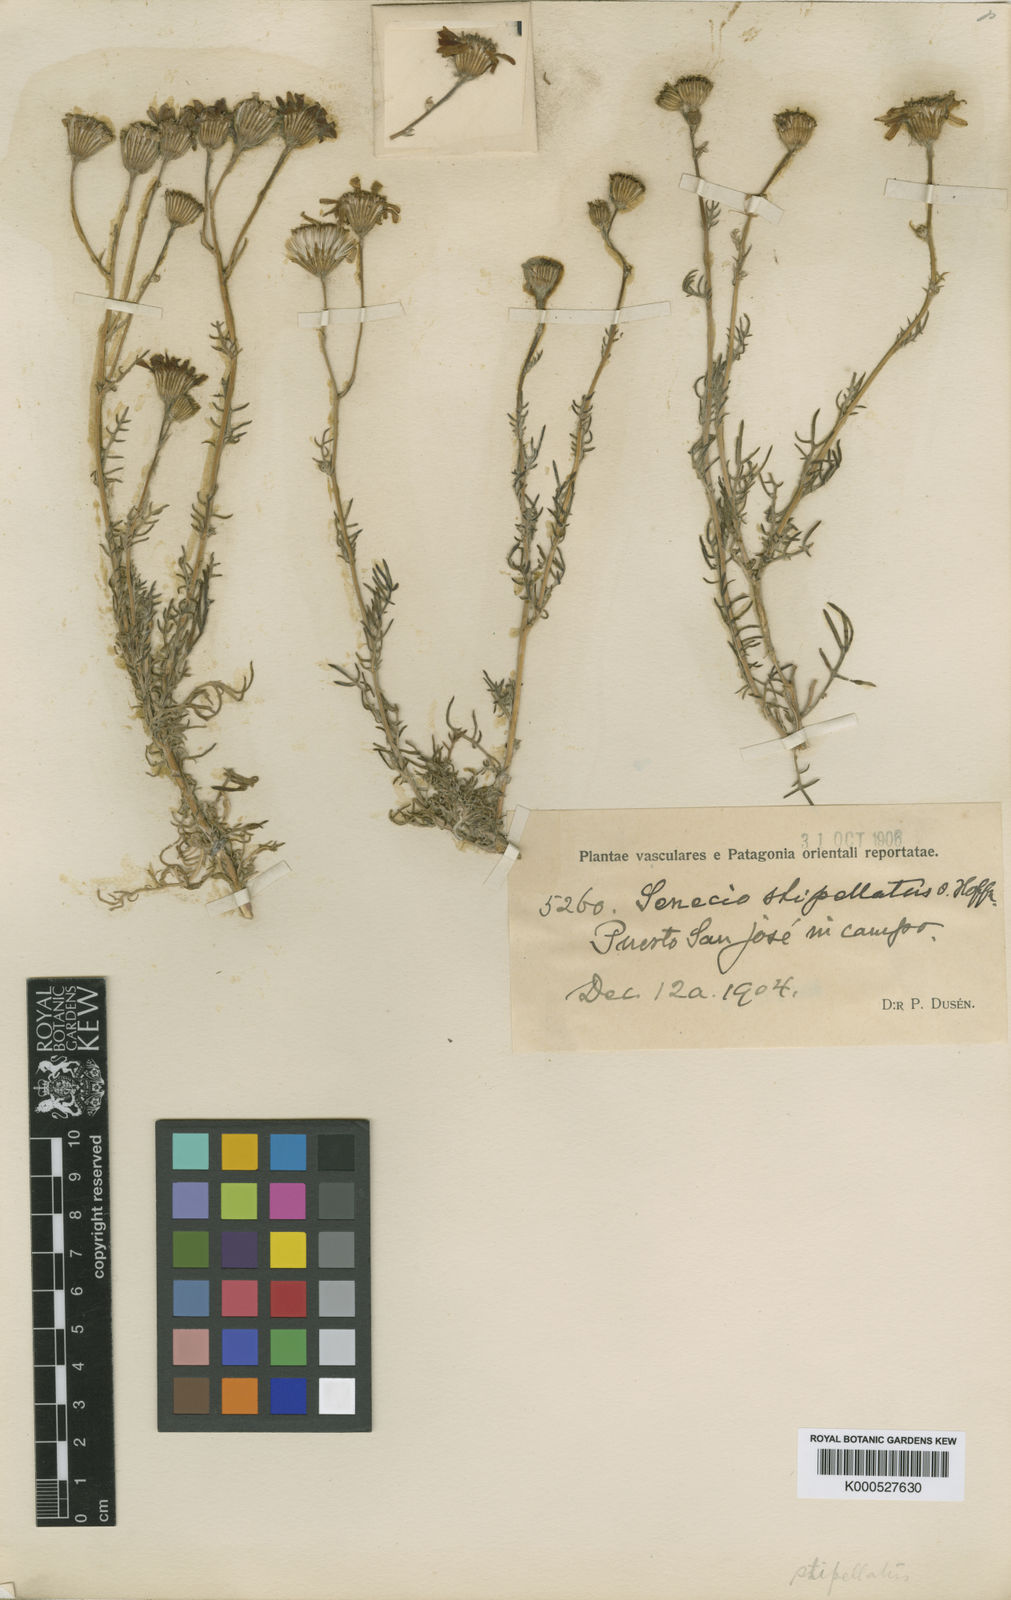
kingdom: Plantae
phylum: Tracheophyta
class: Magnoliopsida
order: Asterales
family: Asteraceae
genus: Senecio
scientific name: Senecio
